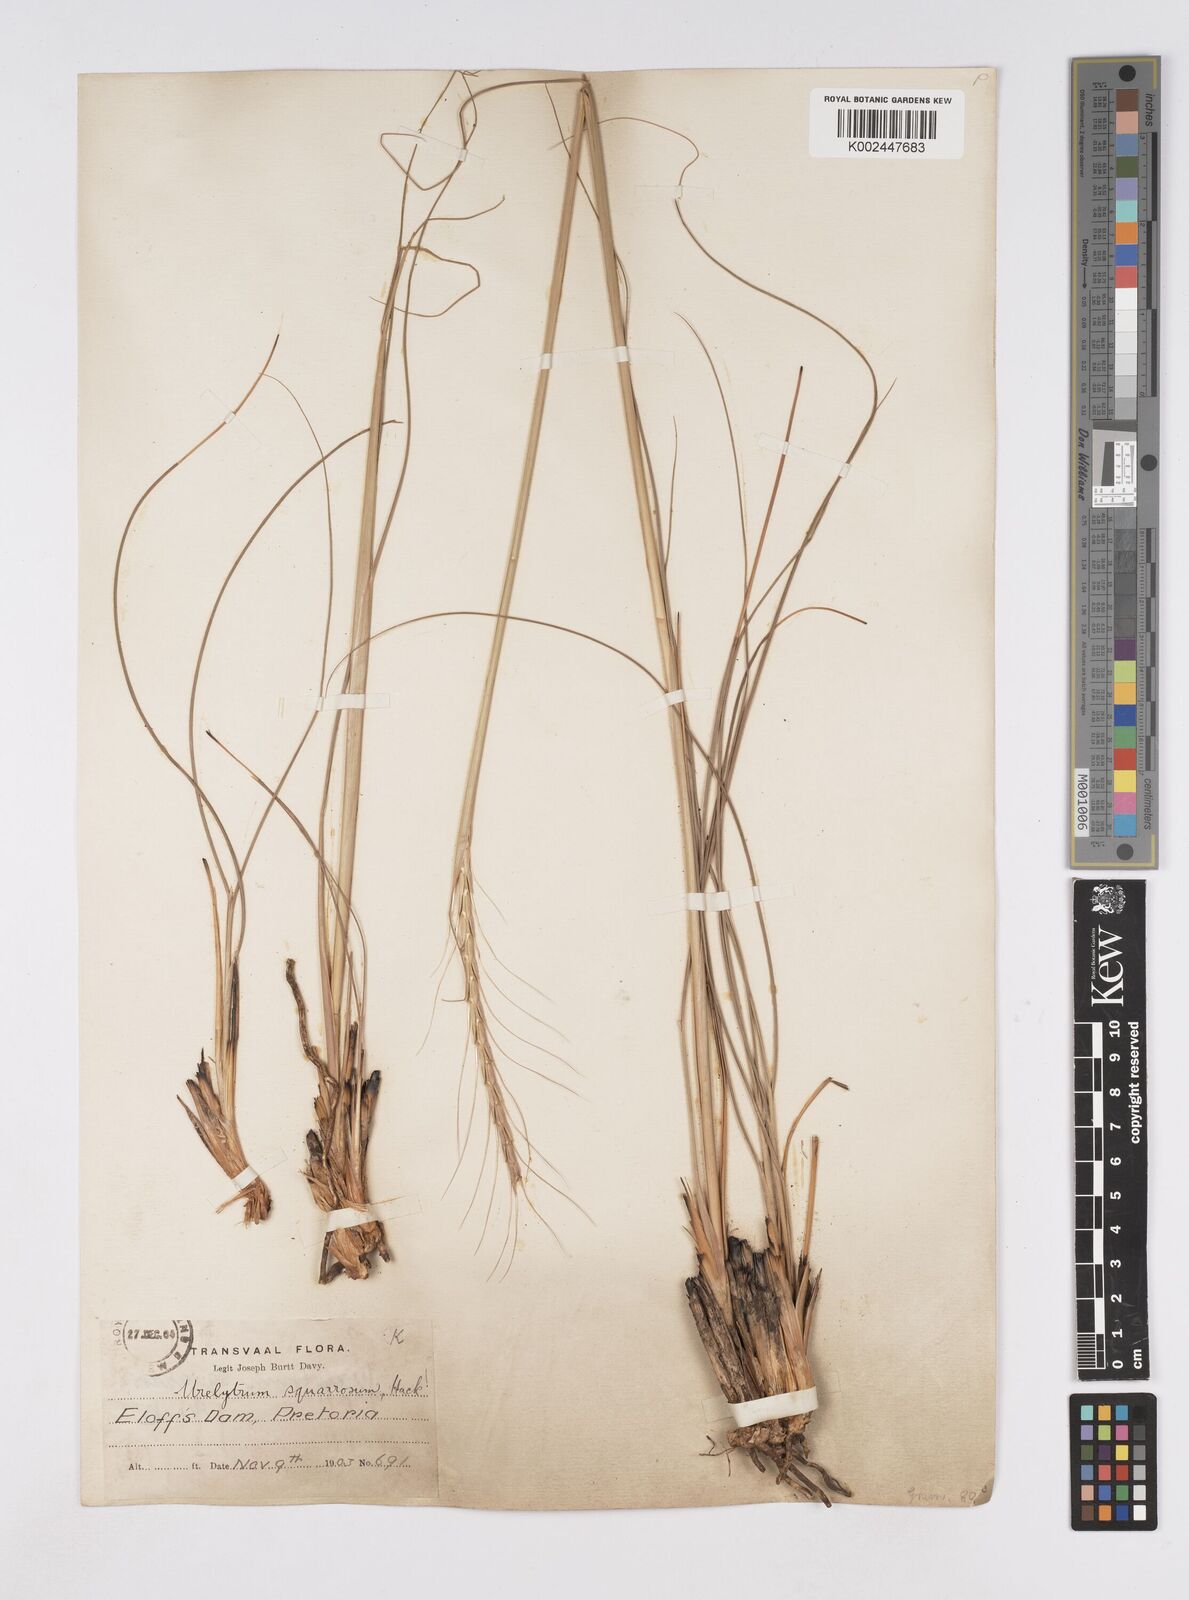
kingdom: Plantae
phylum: Tracheophyta
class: Liliopsida
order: Poales
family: Poaceae
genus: Urelytrum
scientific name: Urelytrum agropyroides
